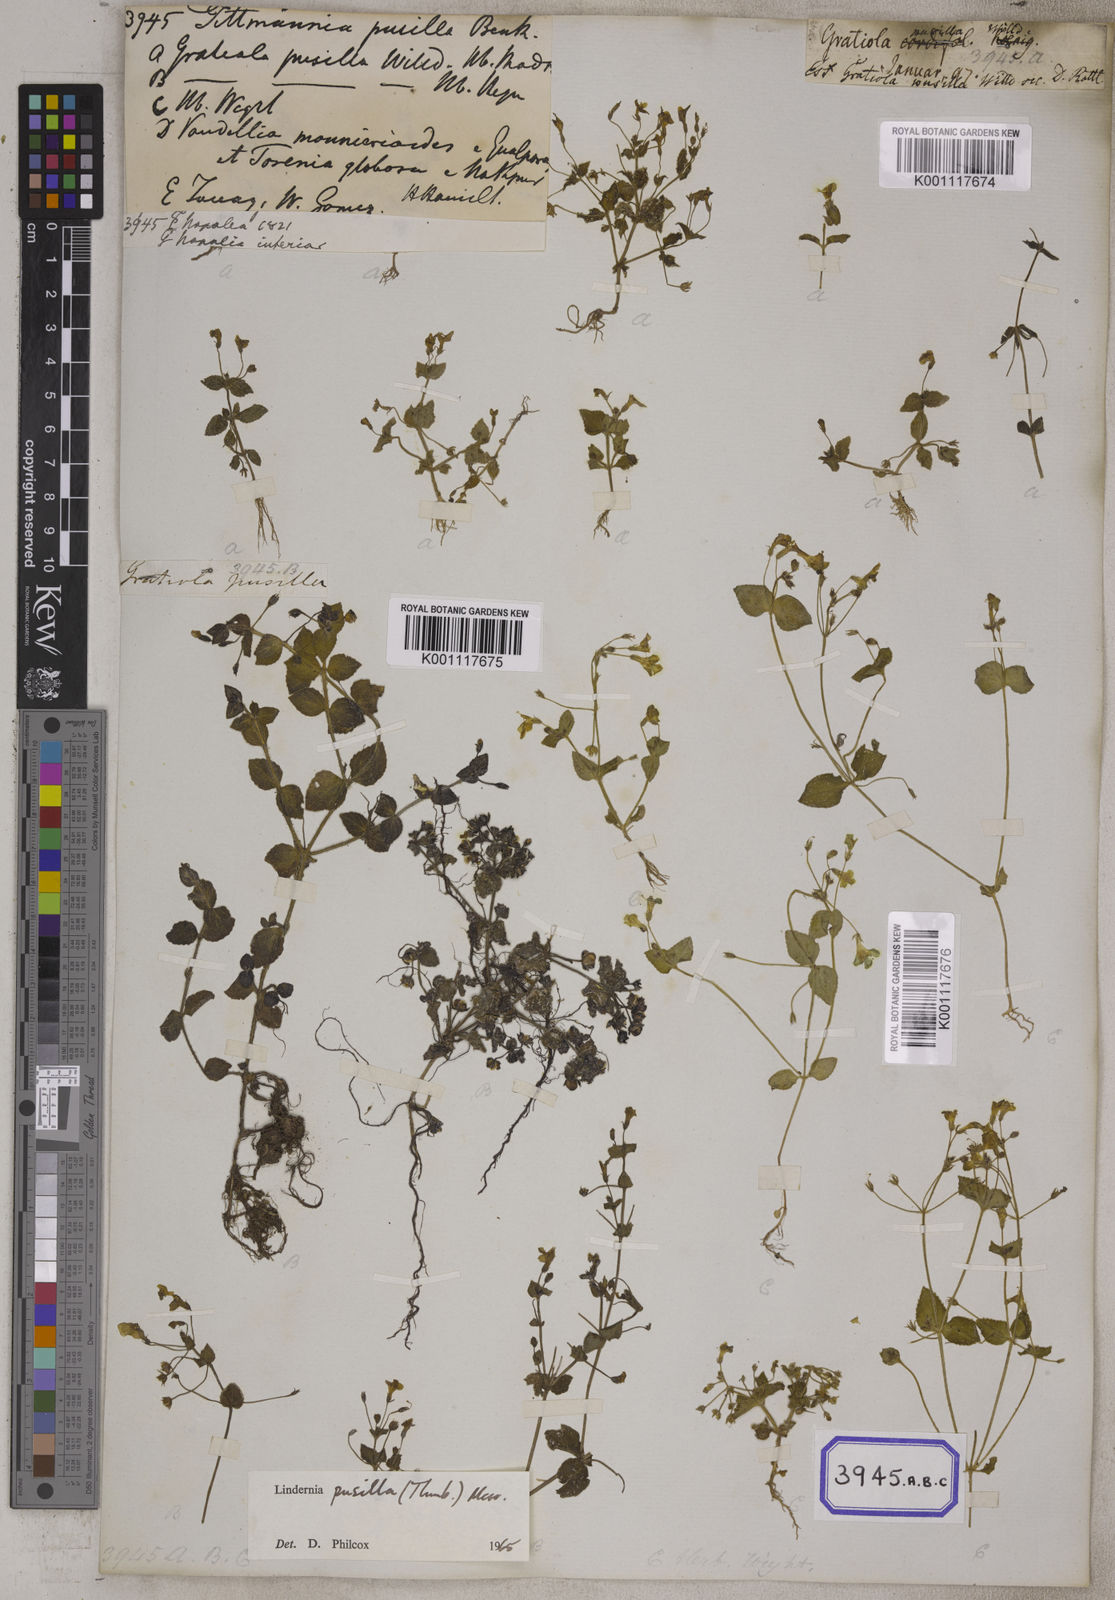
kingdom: Plantae
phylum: Tracheophyta
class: Magnoliopsida
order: Lamiales
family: Linderniaceae
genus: Yamazakia
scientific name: Yamazakia pusilla
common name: Tiny slitwort
